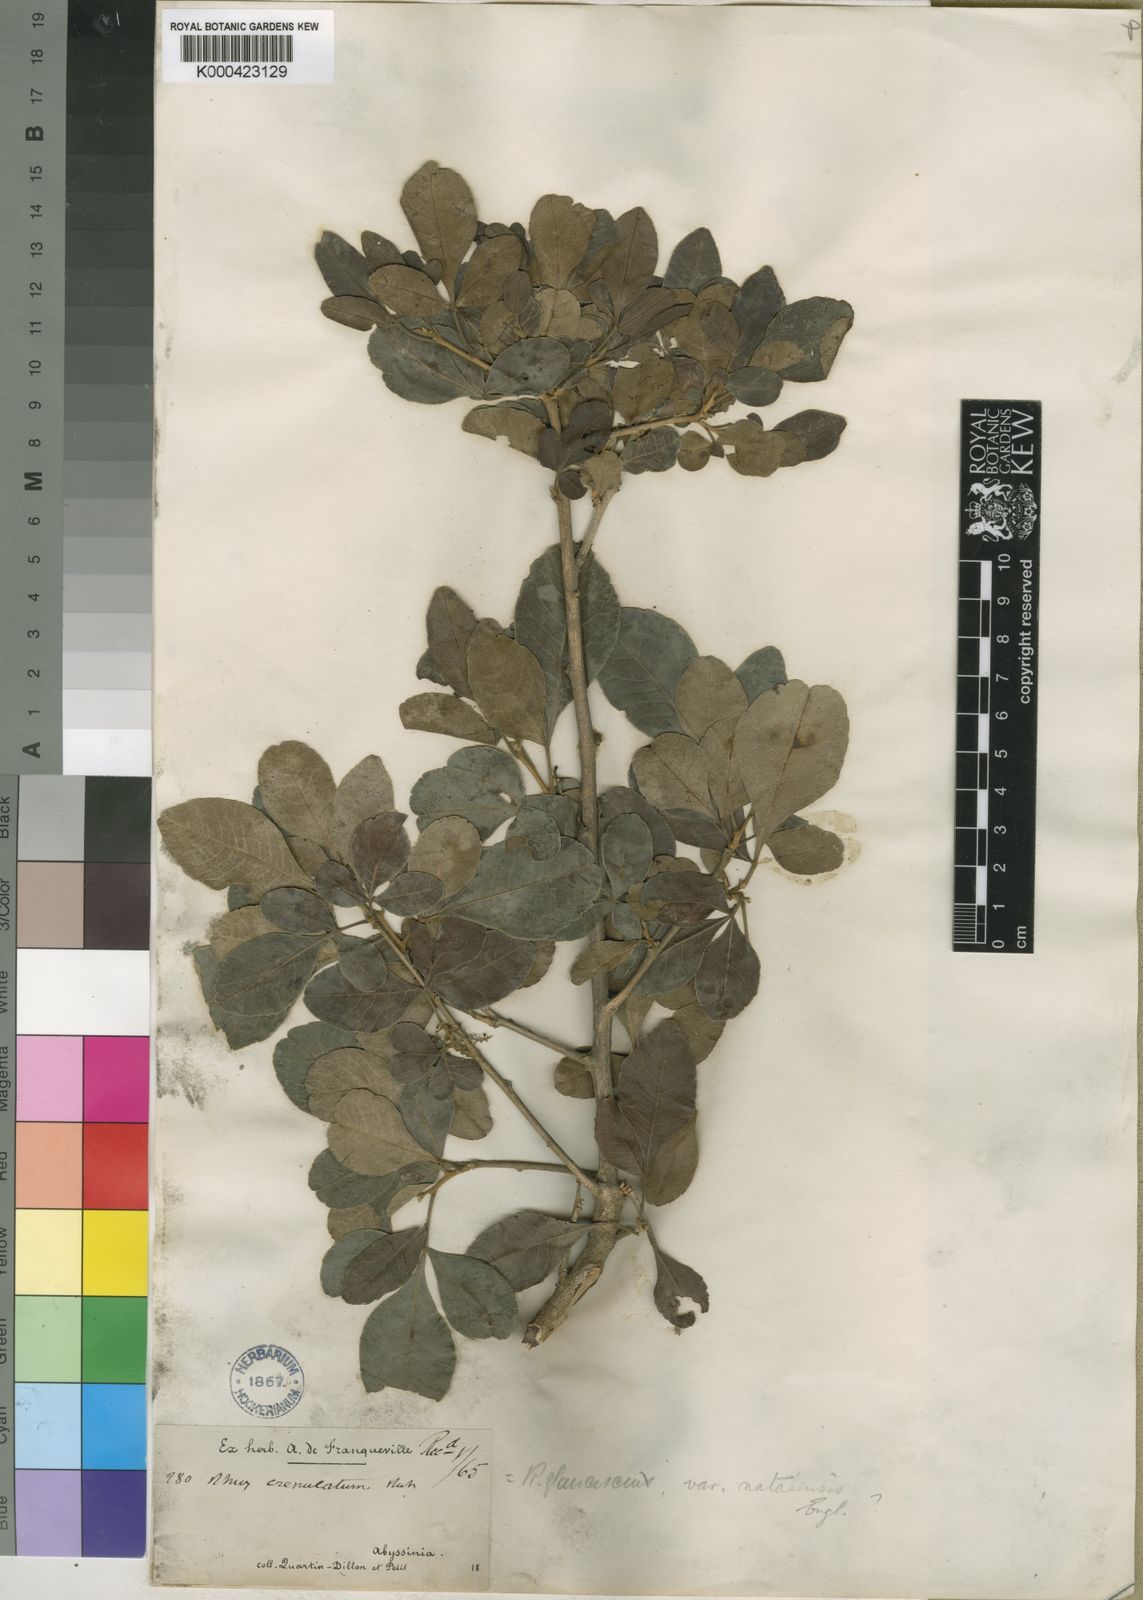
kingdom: Plantae
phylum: Tracheophyta
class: Magnoliopsida
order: Sapindales
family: Anacardiaceae
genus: Searsia
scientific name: Searsia natalensis
